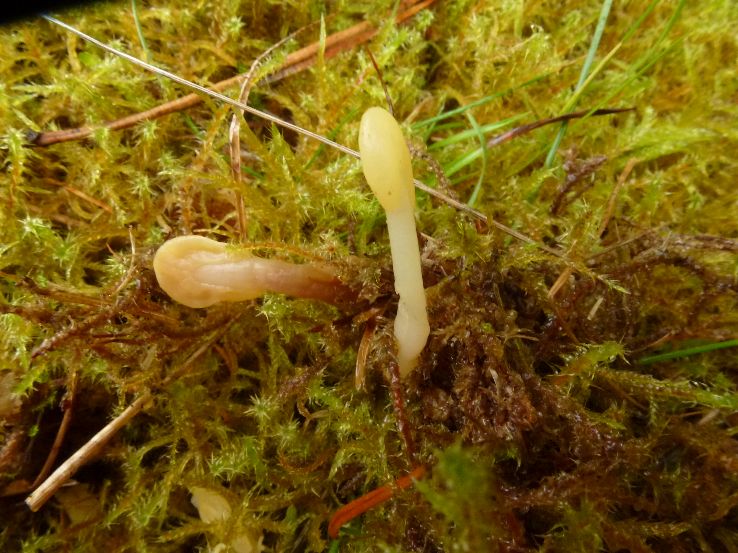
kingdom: Fungi
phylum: Ascomycota
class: Leotiomycetes
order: Rhytismatales
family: Cudoniaceae
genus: Spathularia
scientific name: Spathularia flavida
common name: gul spatelsvamp
